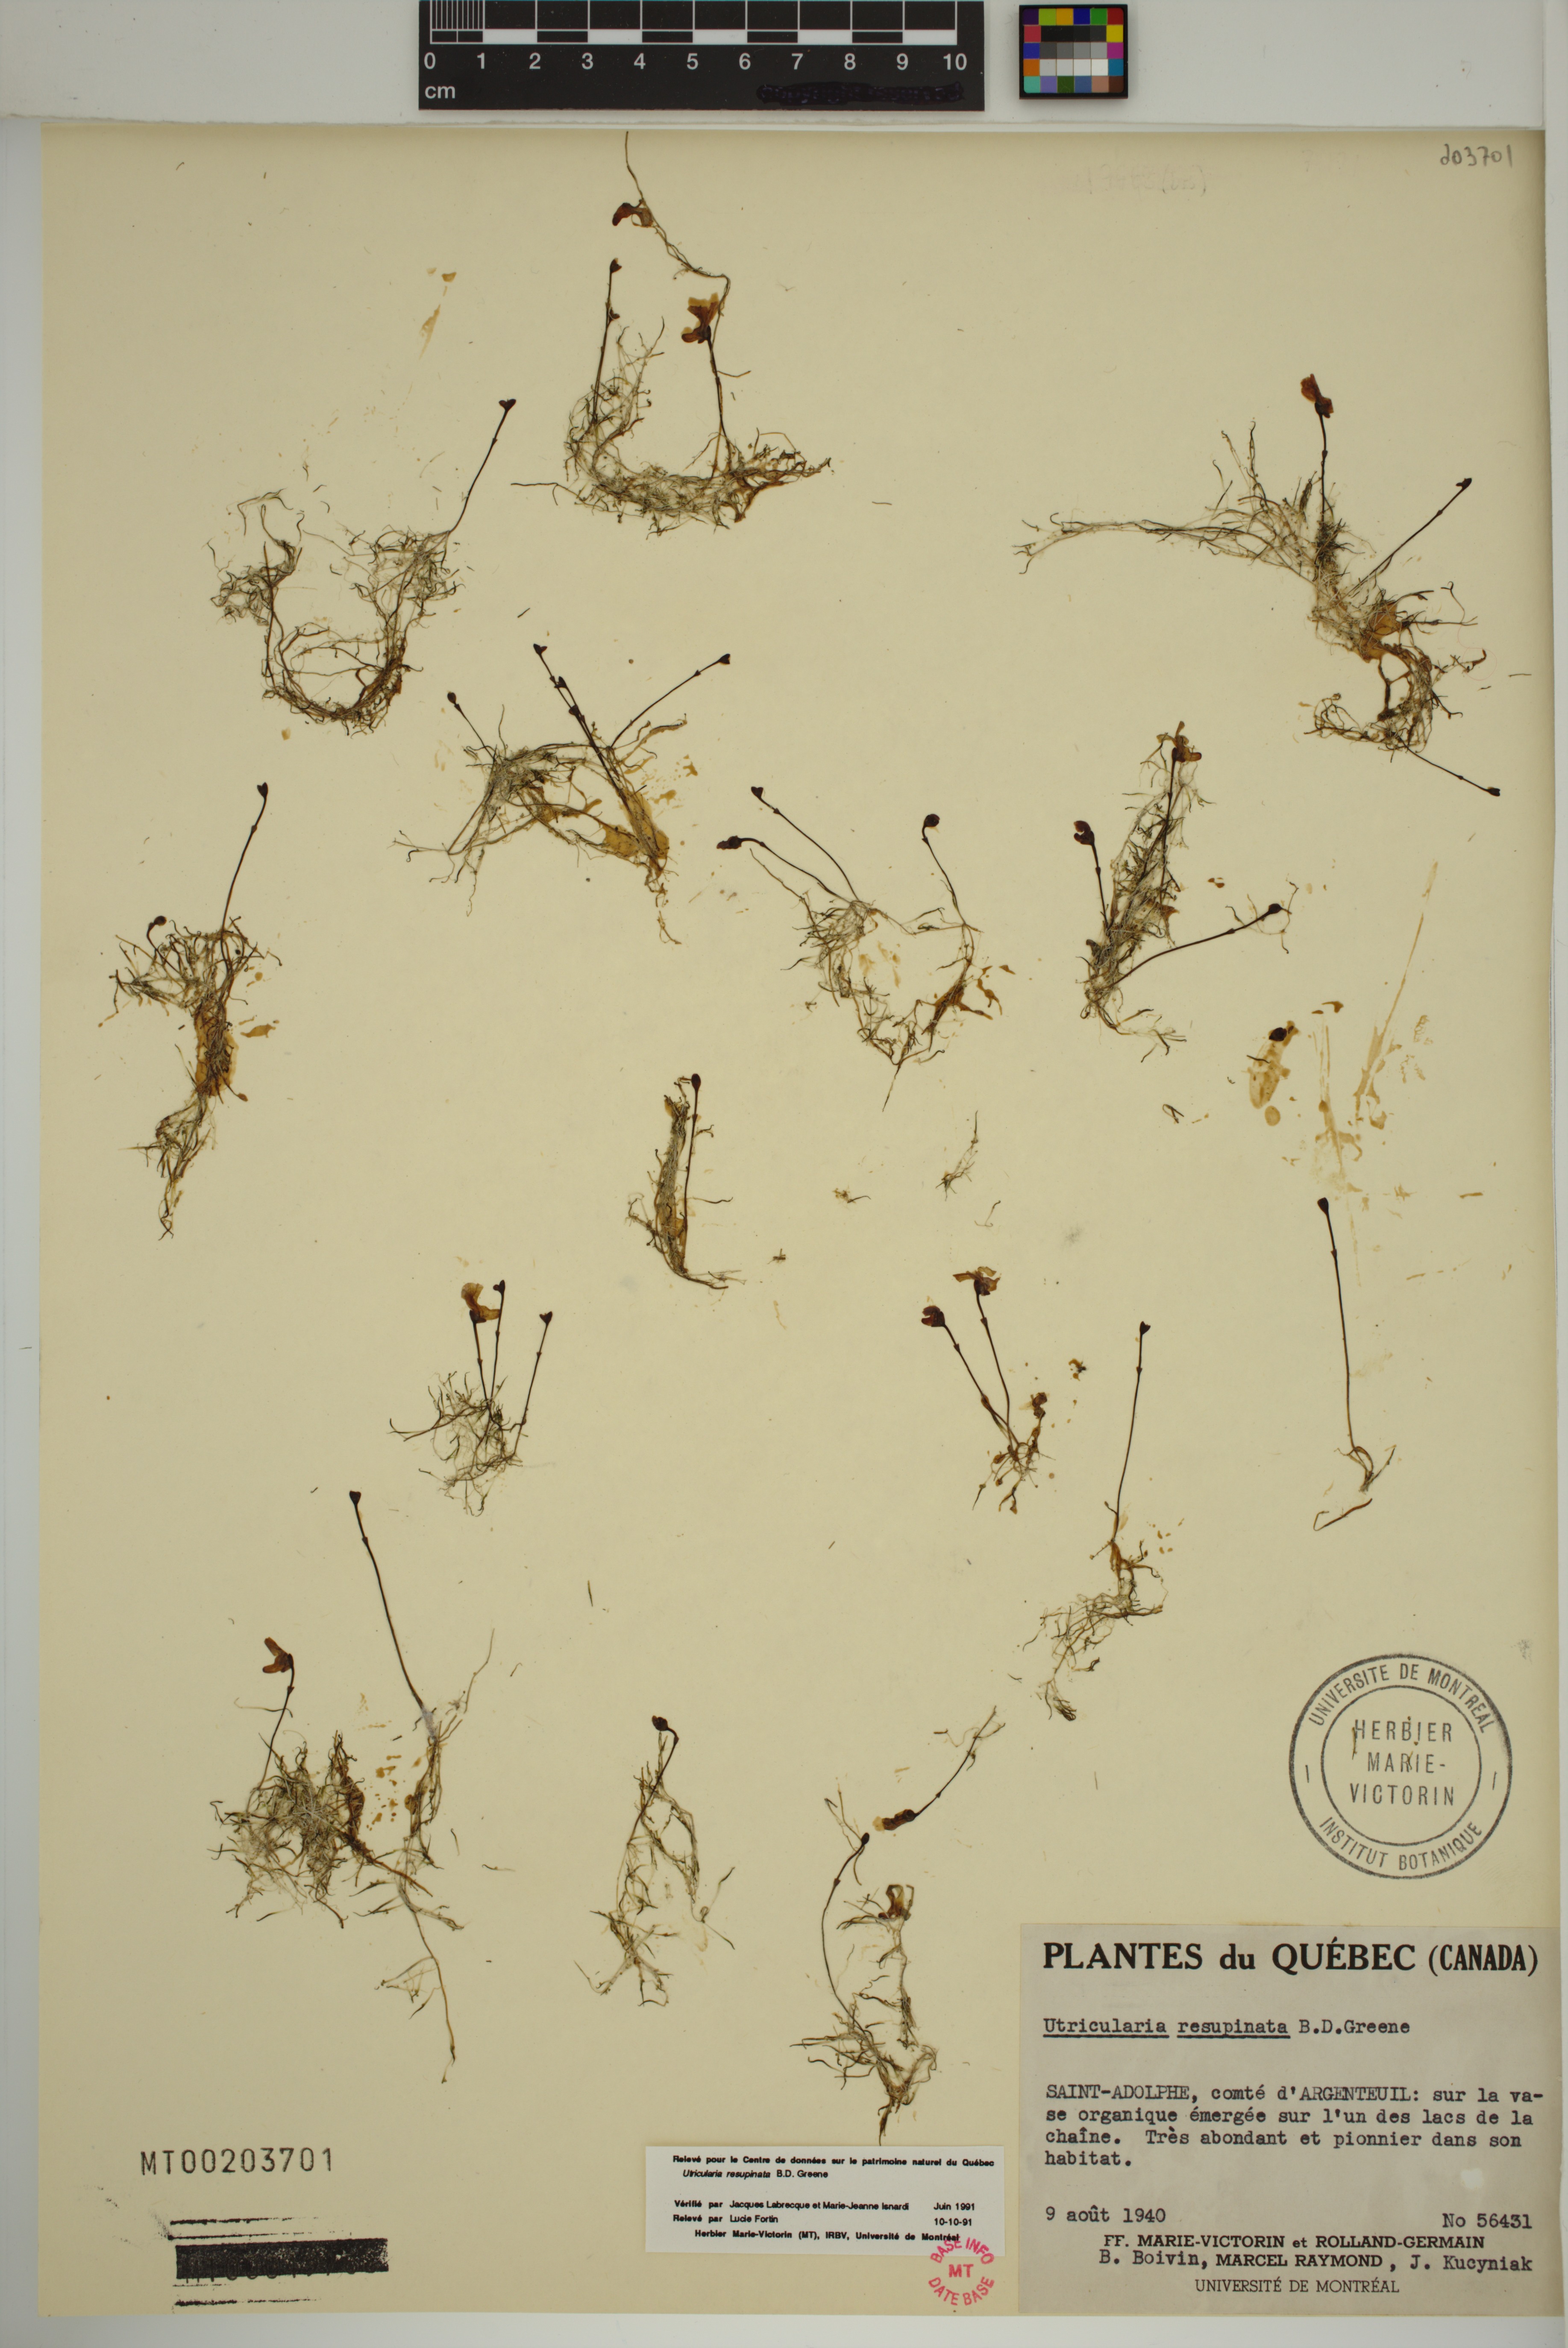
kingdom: Plantae
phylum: Tracheophyta
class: Magnoliopsida
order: Lamiales
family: Lentibulariaceae
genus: Utricularia
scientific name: Utricularia resupinata
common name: Northeastern bladderwort
